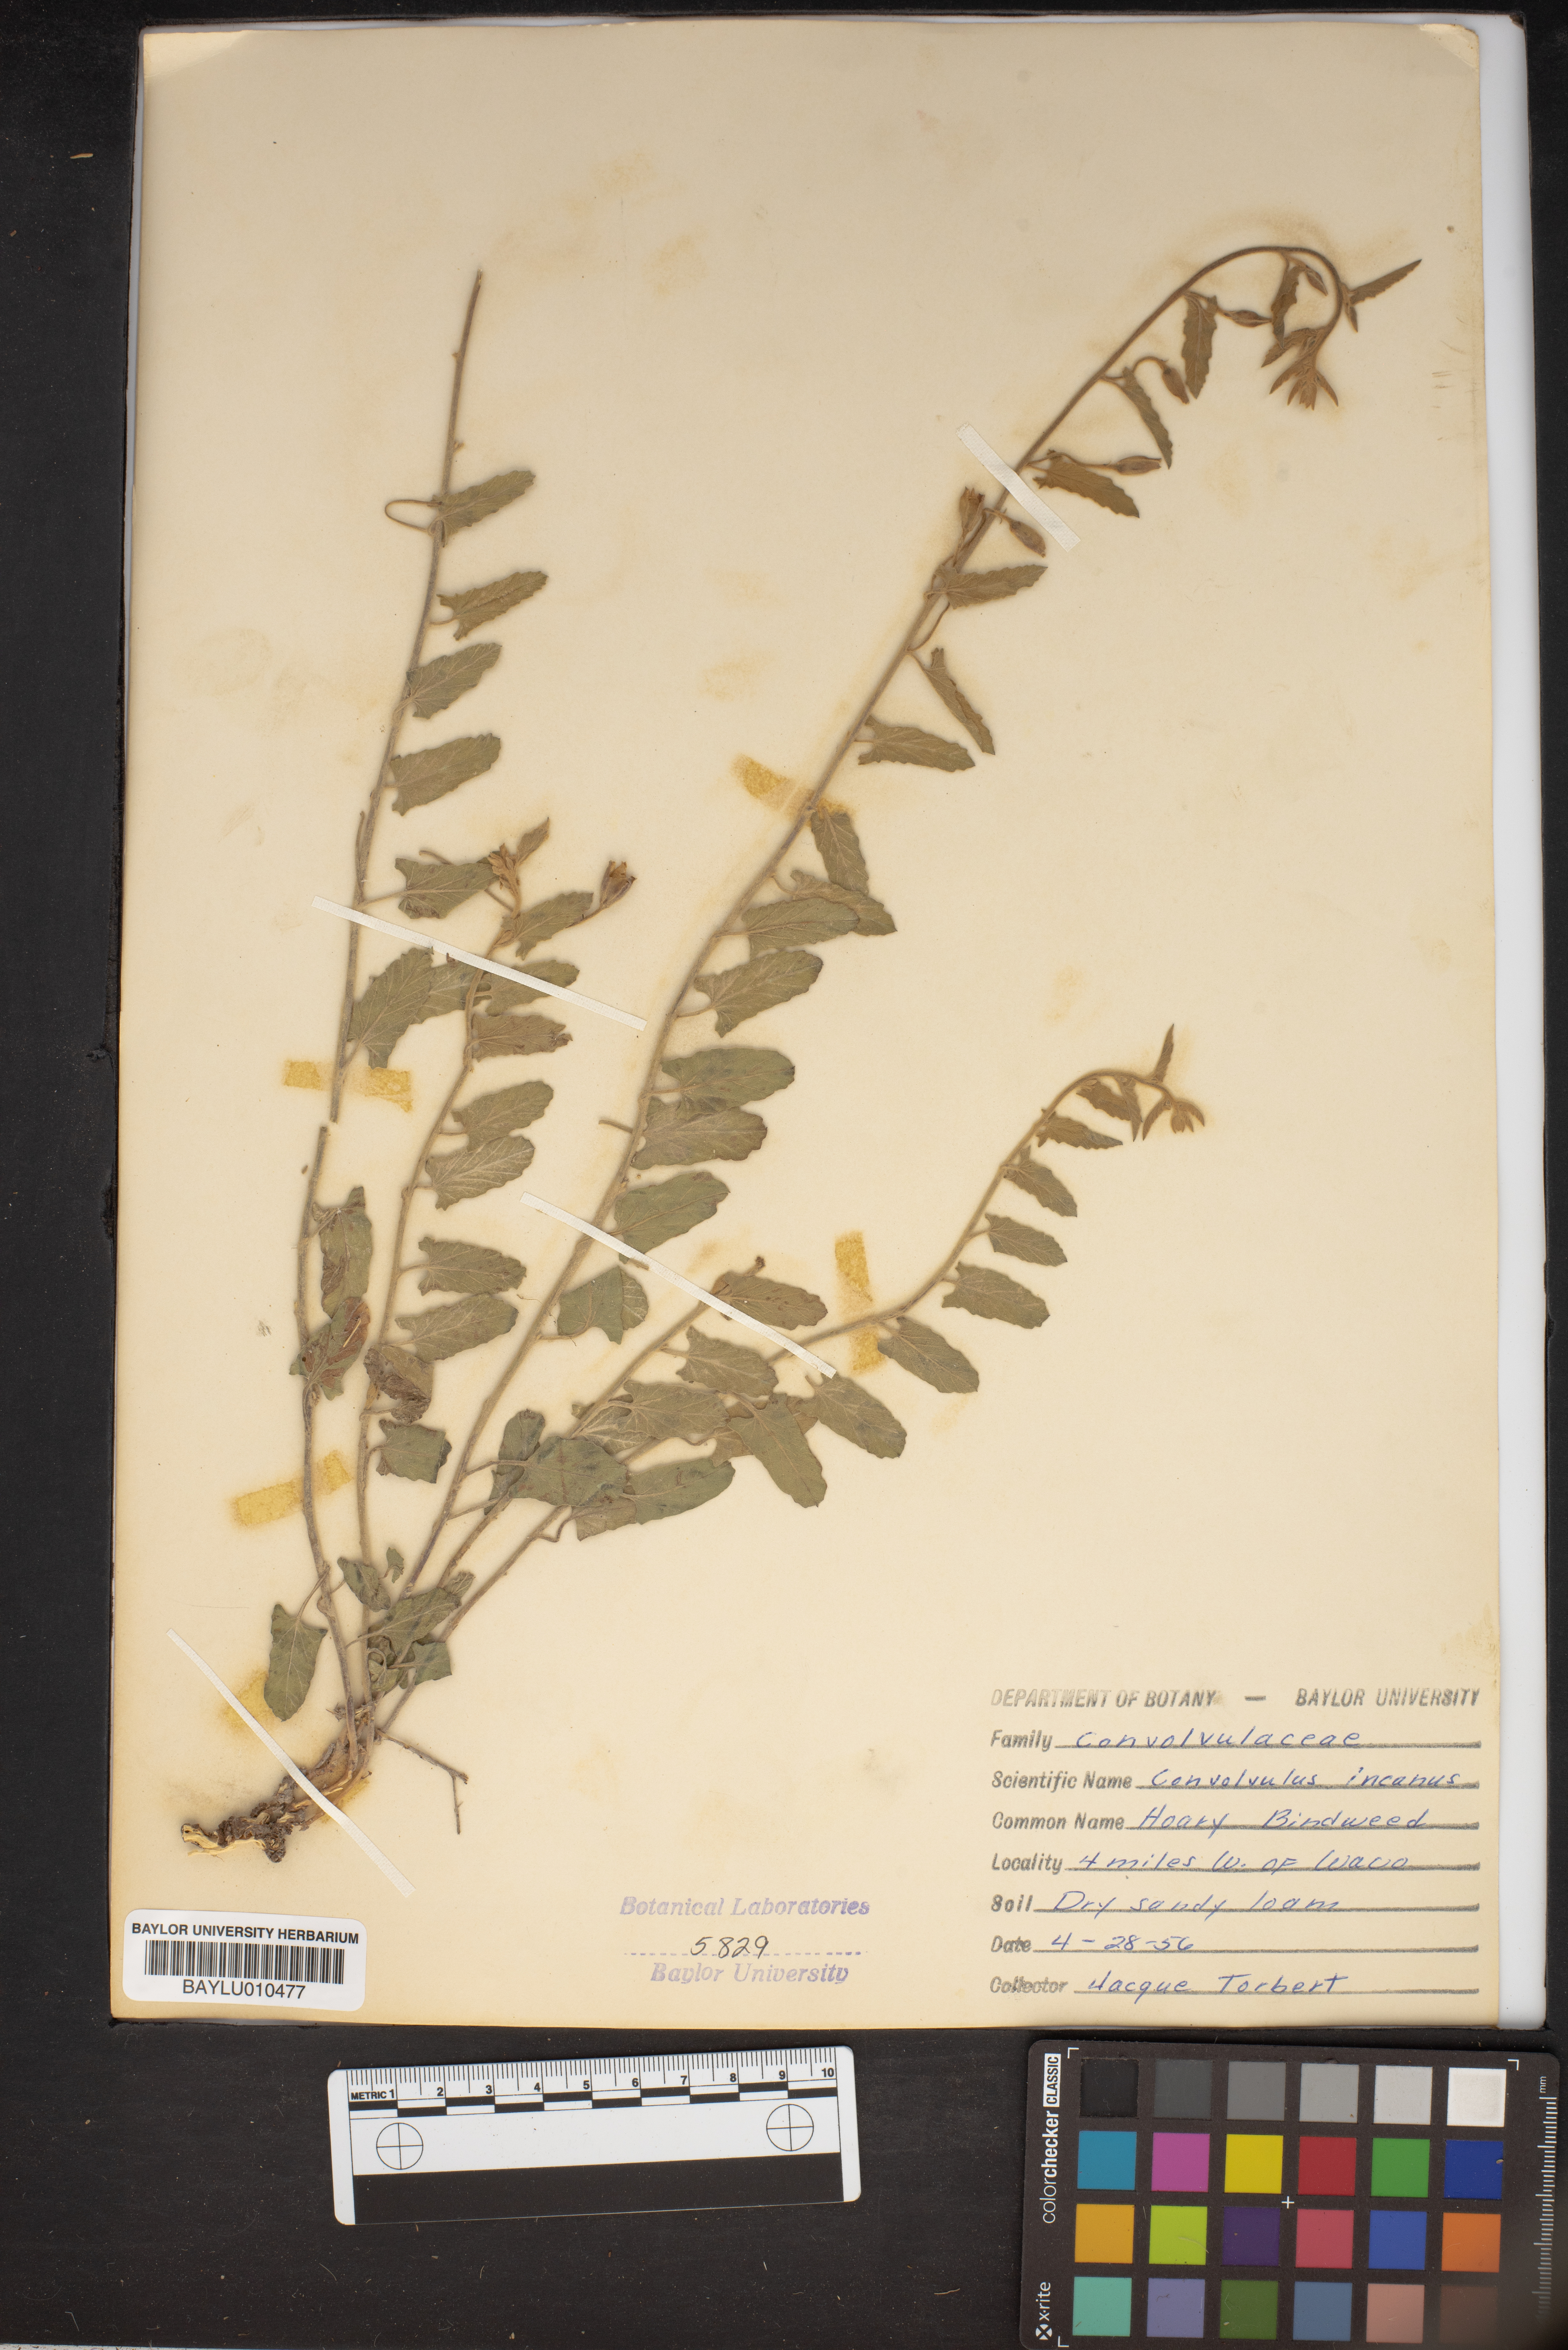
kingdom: Plantae
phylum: Tracheophyta
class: Magnoliopsida
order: Solanales
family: Convolvulaceae
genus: Convolvulus
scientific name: Convolvulus hermanniae
